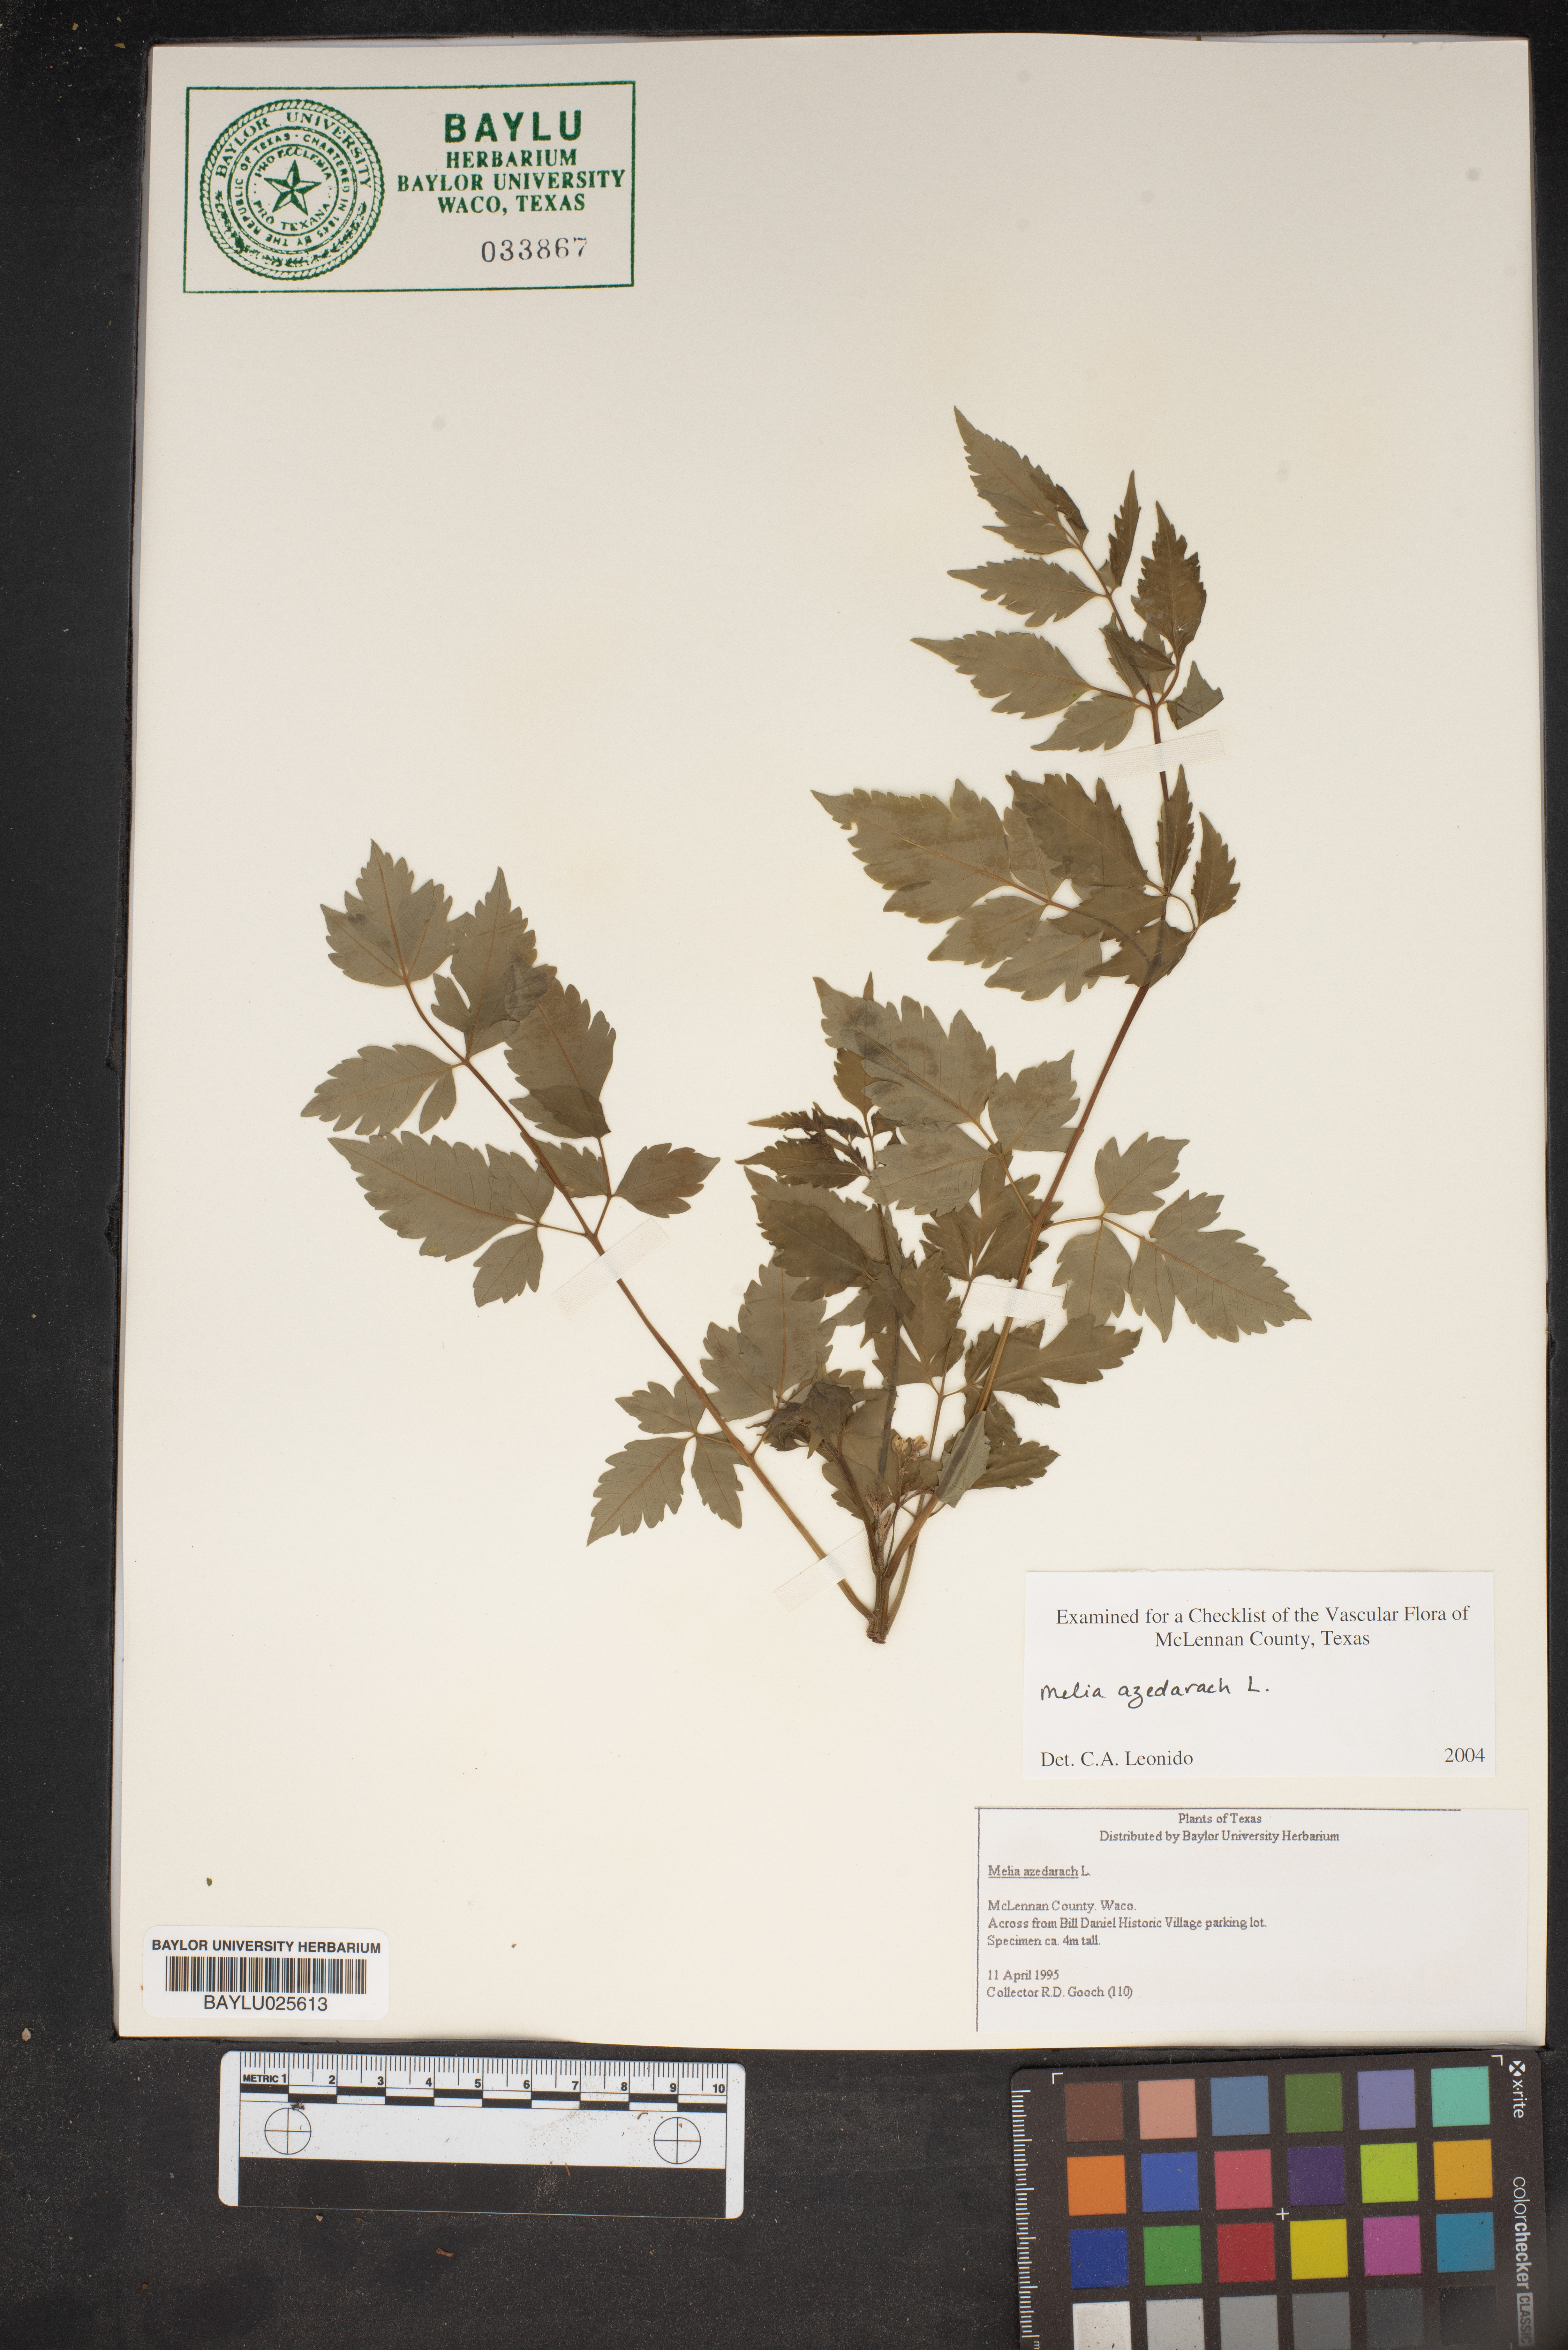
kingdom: Plantae
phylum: Tracheophyta
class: Magnoliopsida
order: Sapindales
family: Meliaceae
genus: Melia
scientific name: Melia azedarach
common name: Chinaberrytree
